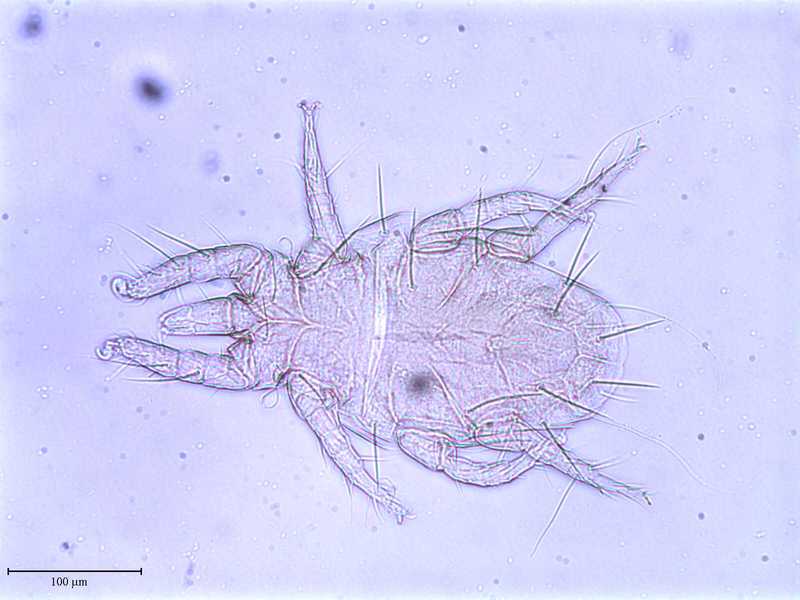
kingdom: Animalia
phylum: Arthropoda
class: Arachnida
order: Trombidiformes
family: Resinacaridae
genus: Resinacarus
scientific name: Resinacarus resinatus
